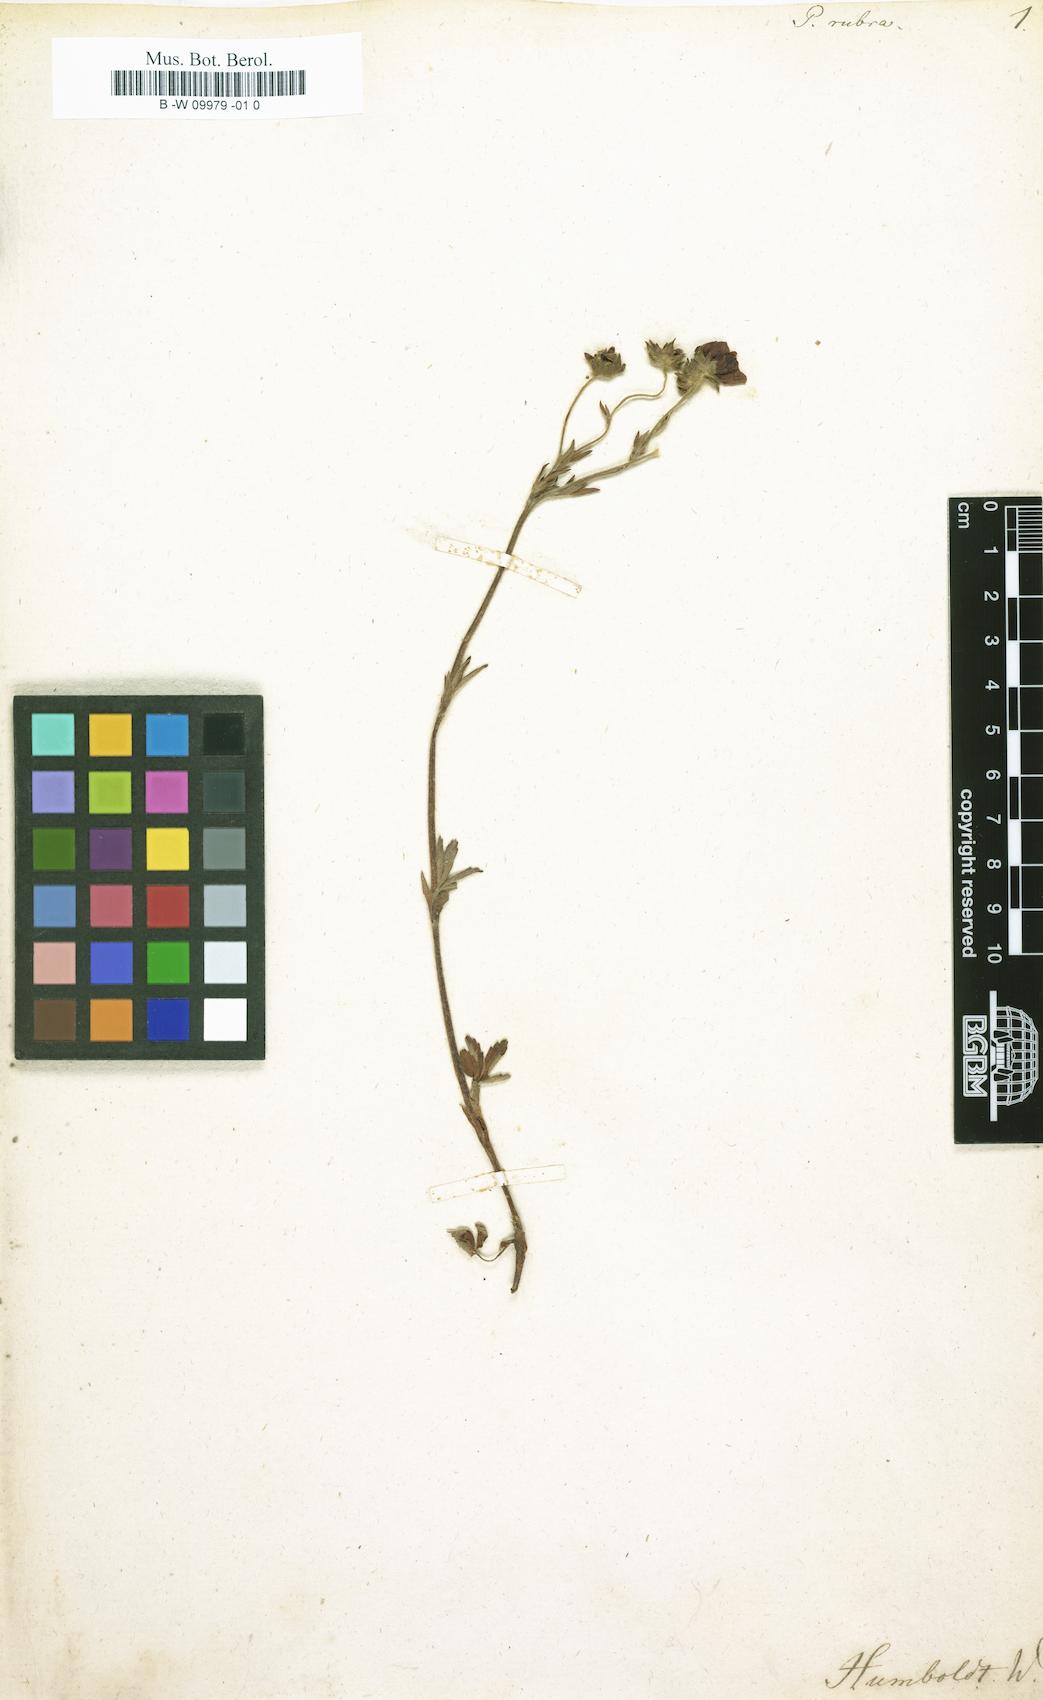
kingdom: Plantae
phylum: Tracheophyta
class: Magnoliopsida
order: Rosales
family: Rosaceae
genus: Potentilla
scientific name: Potentilla rubra
